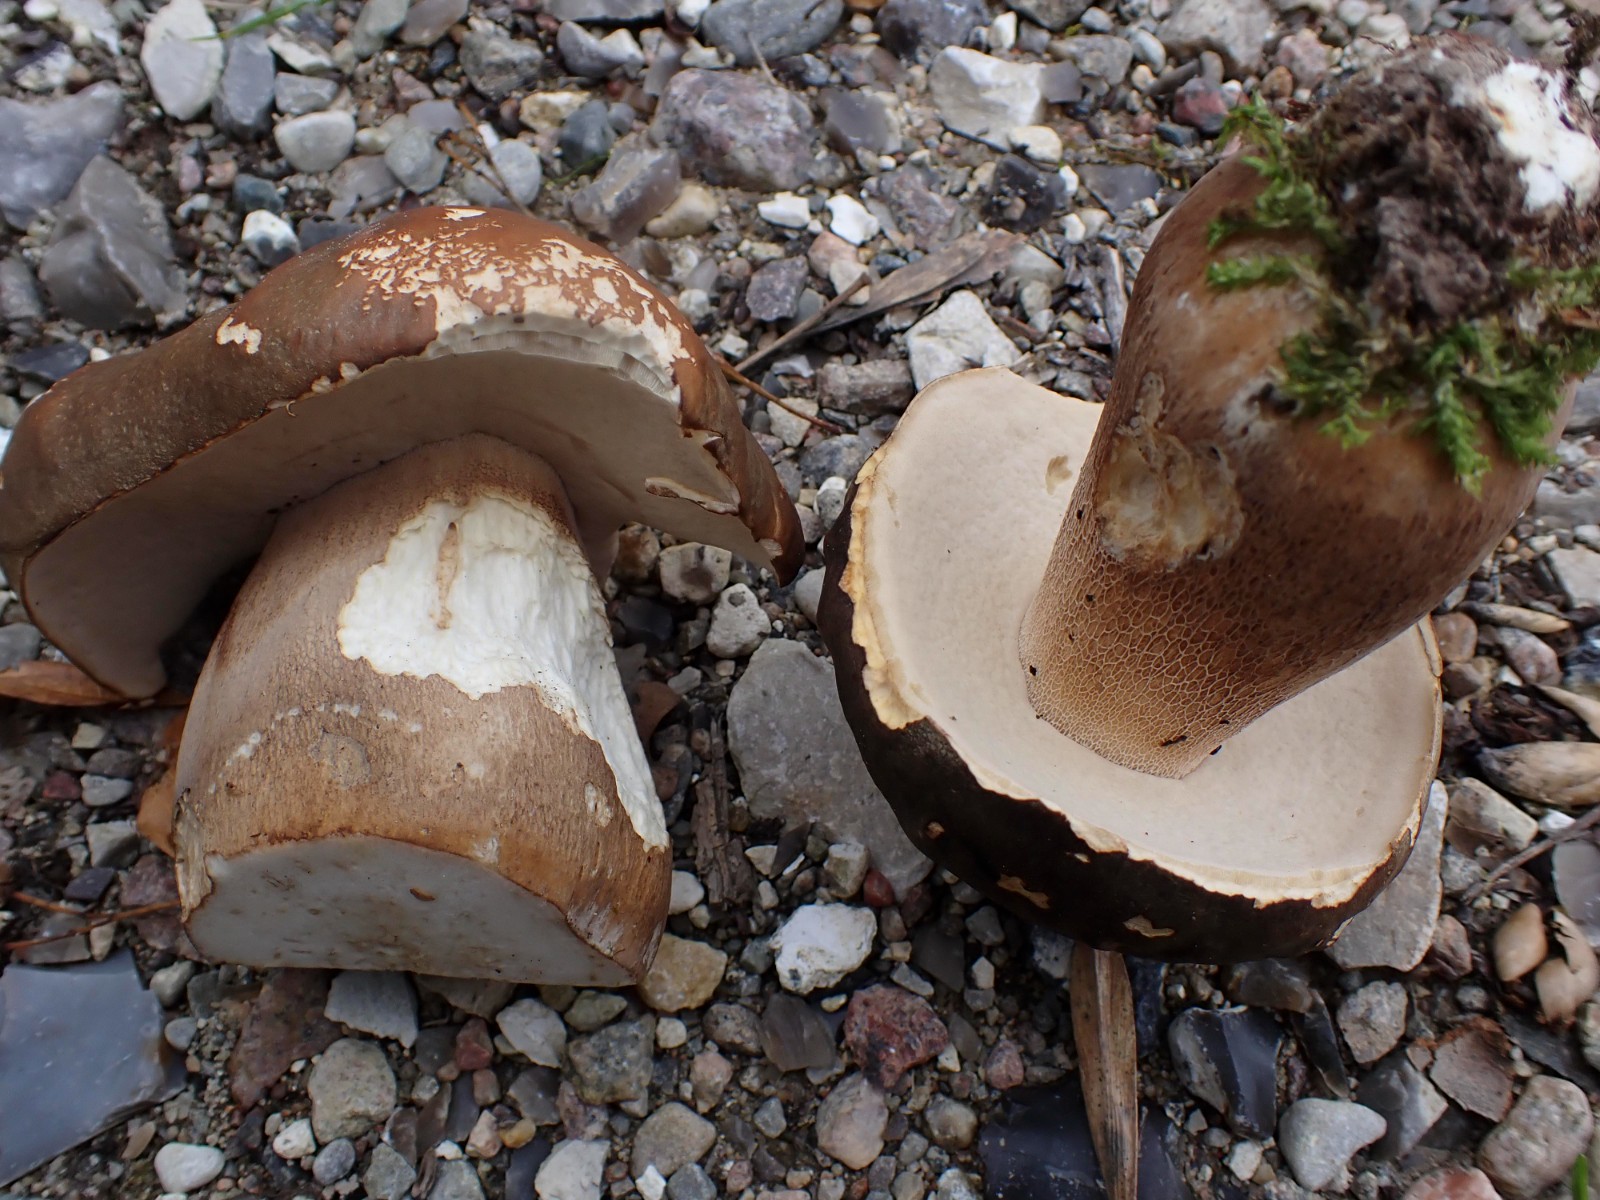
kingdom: Fungi
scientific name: Fungi
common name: bronze-rørhat
